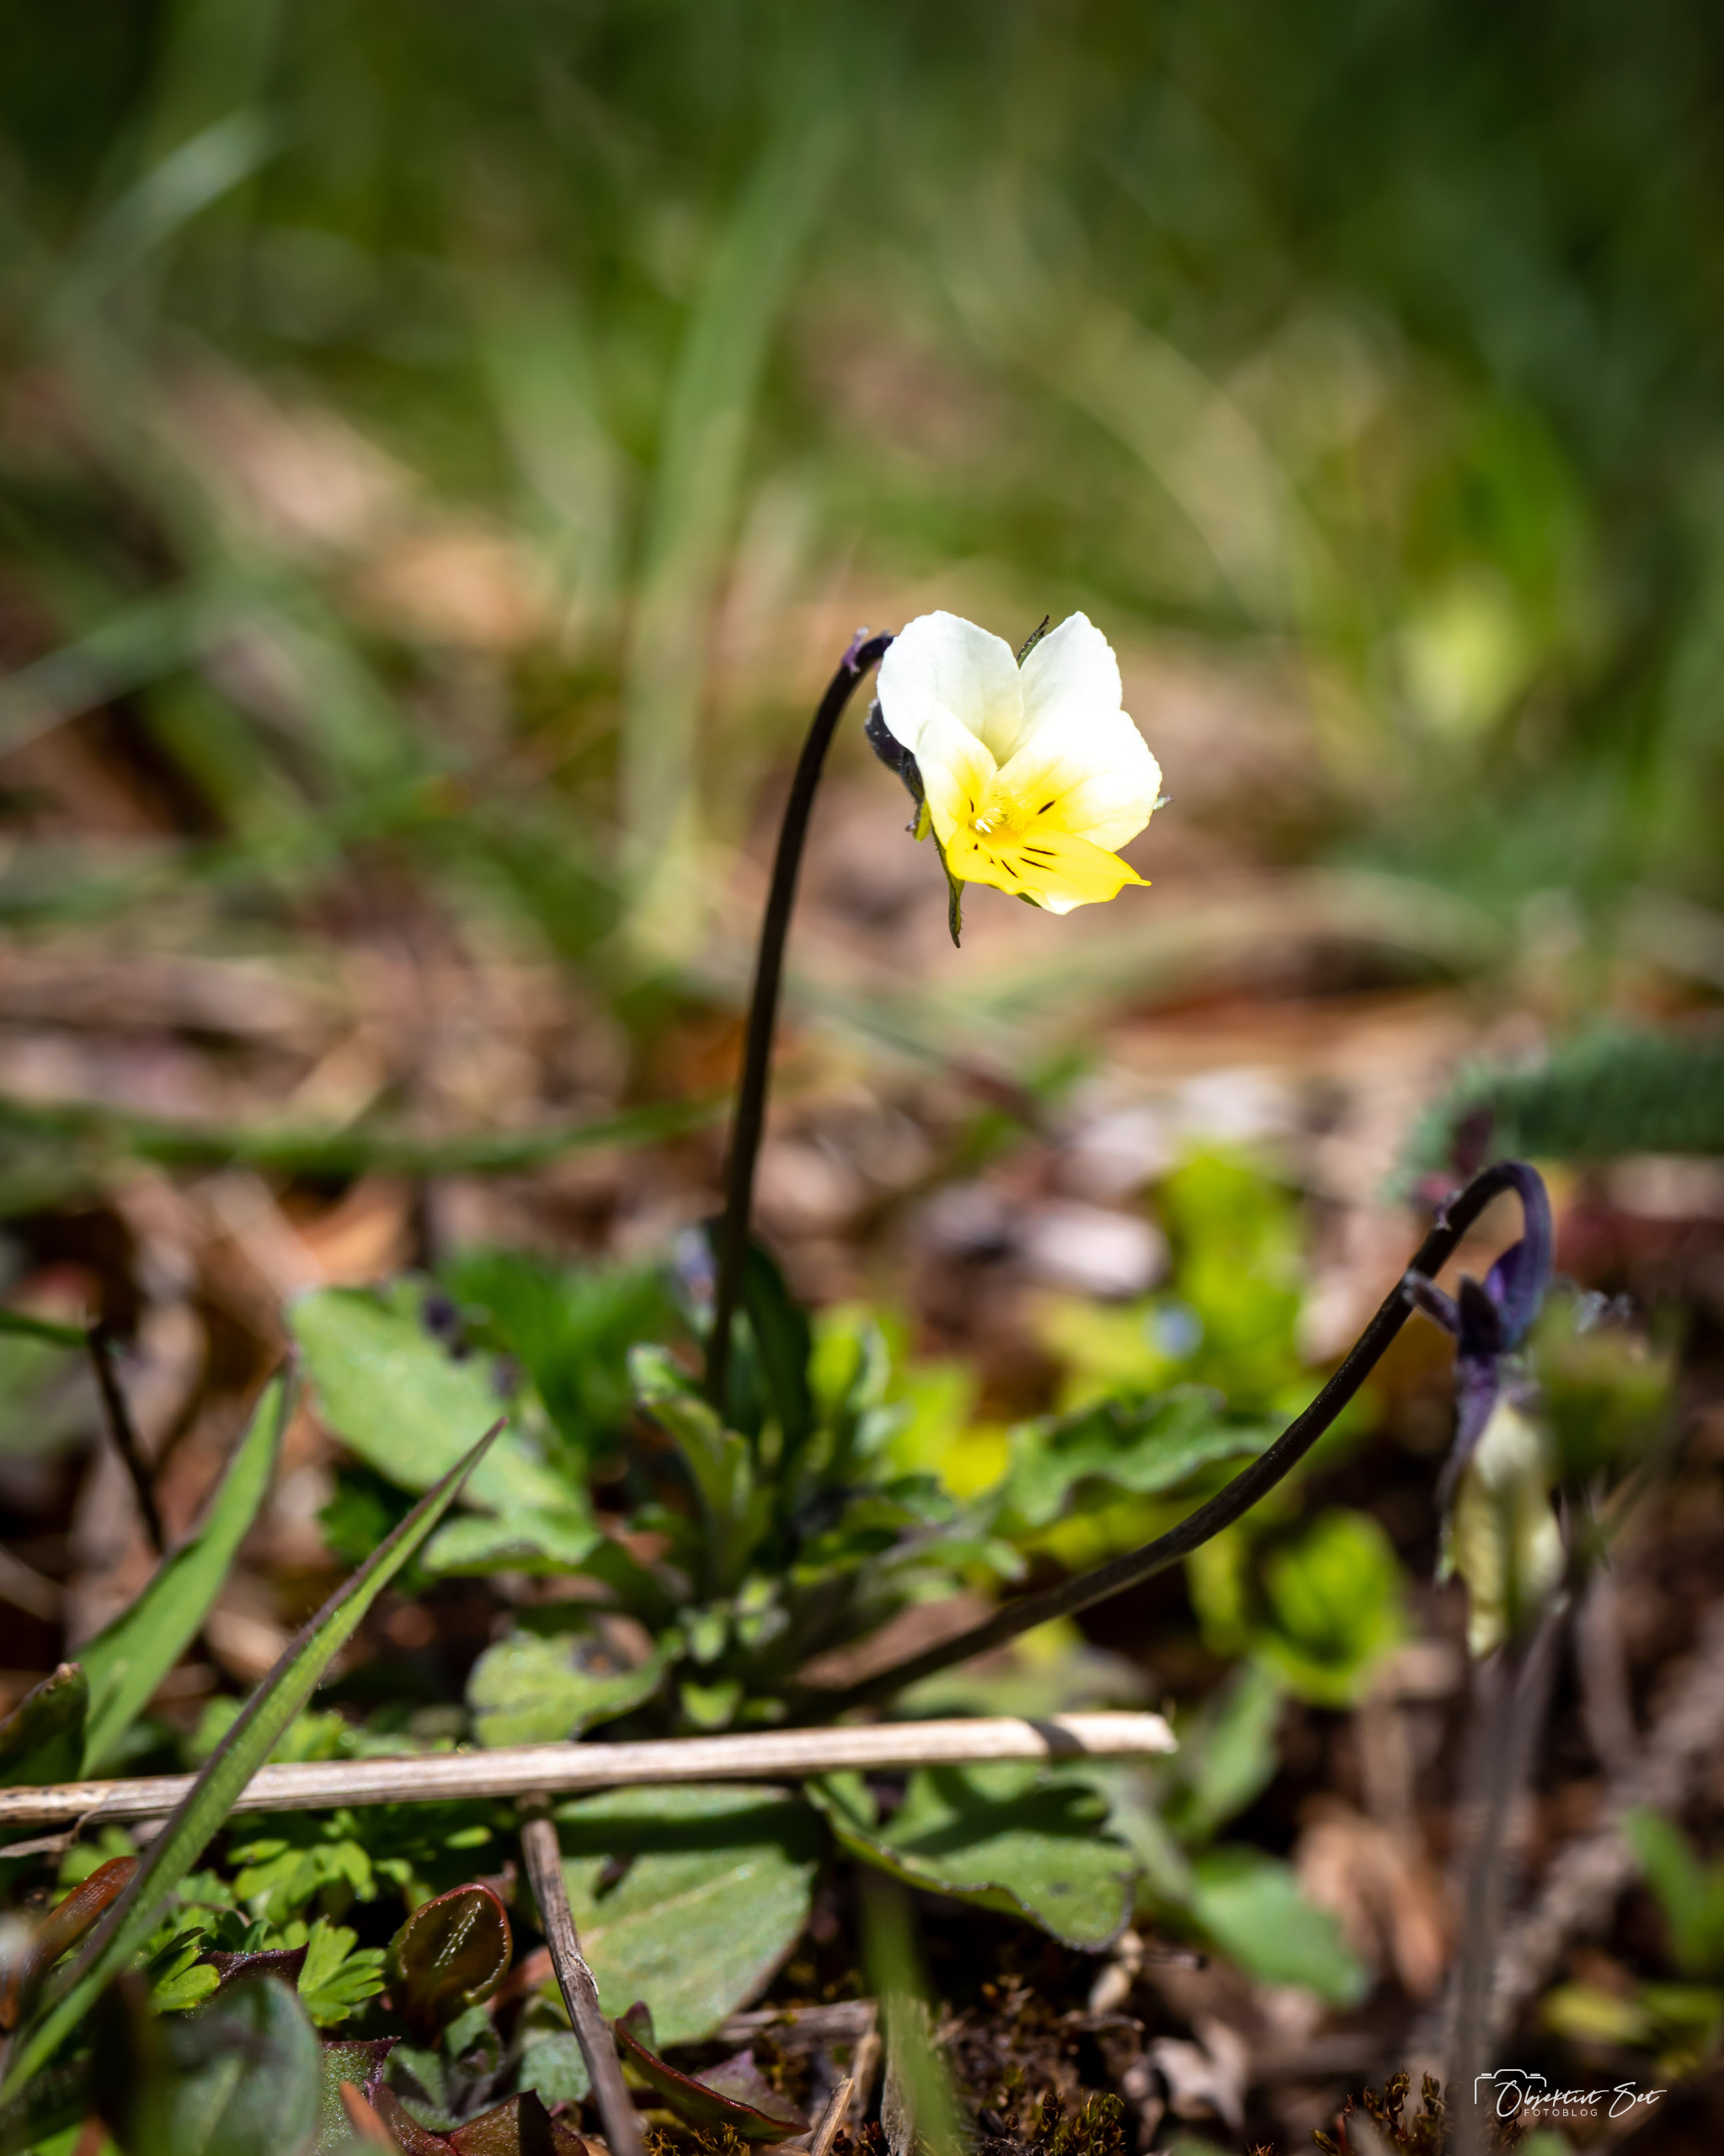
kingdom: Plantae
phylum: Tracheophyta
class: Magnoliopsida
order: Malpighiales
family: Violaceae
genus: Viola
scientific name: Viola arvensis
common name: Ager-stedmoderblomst
